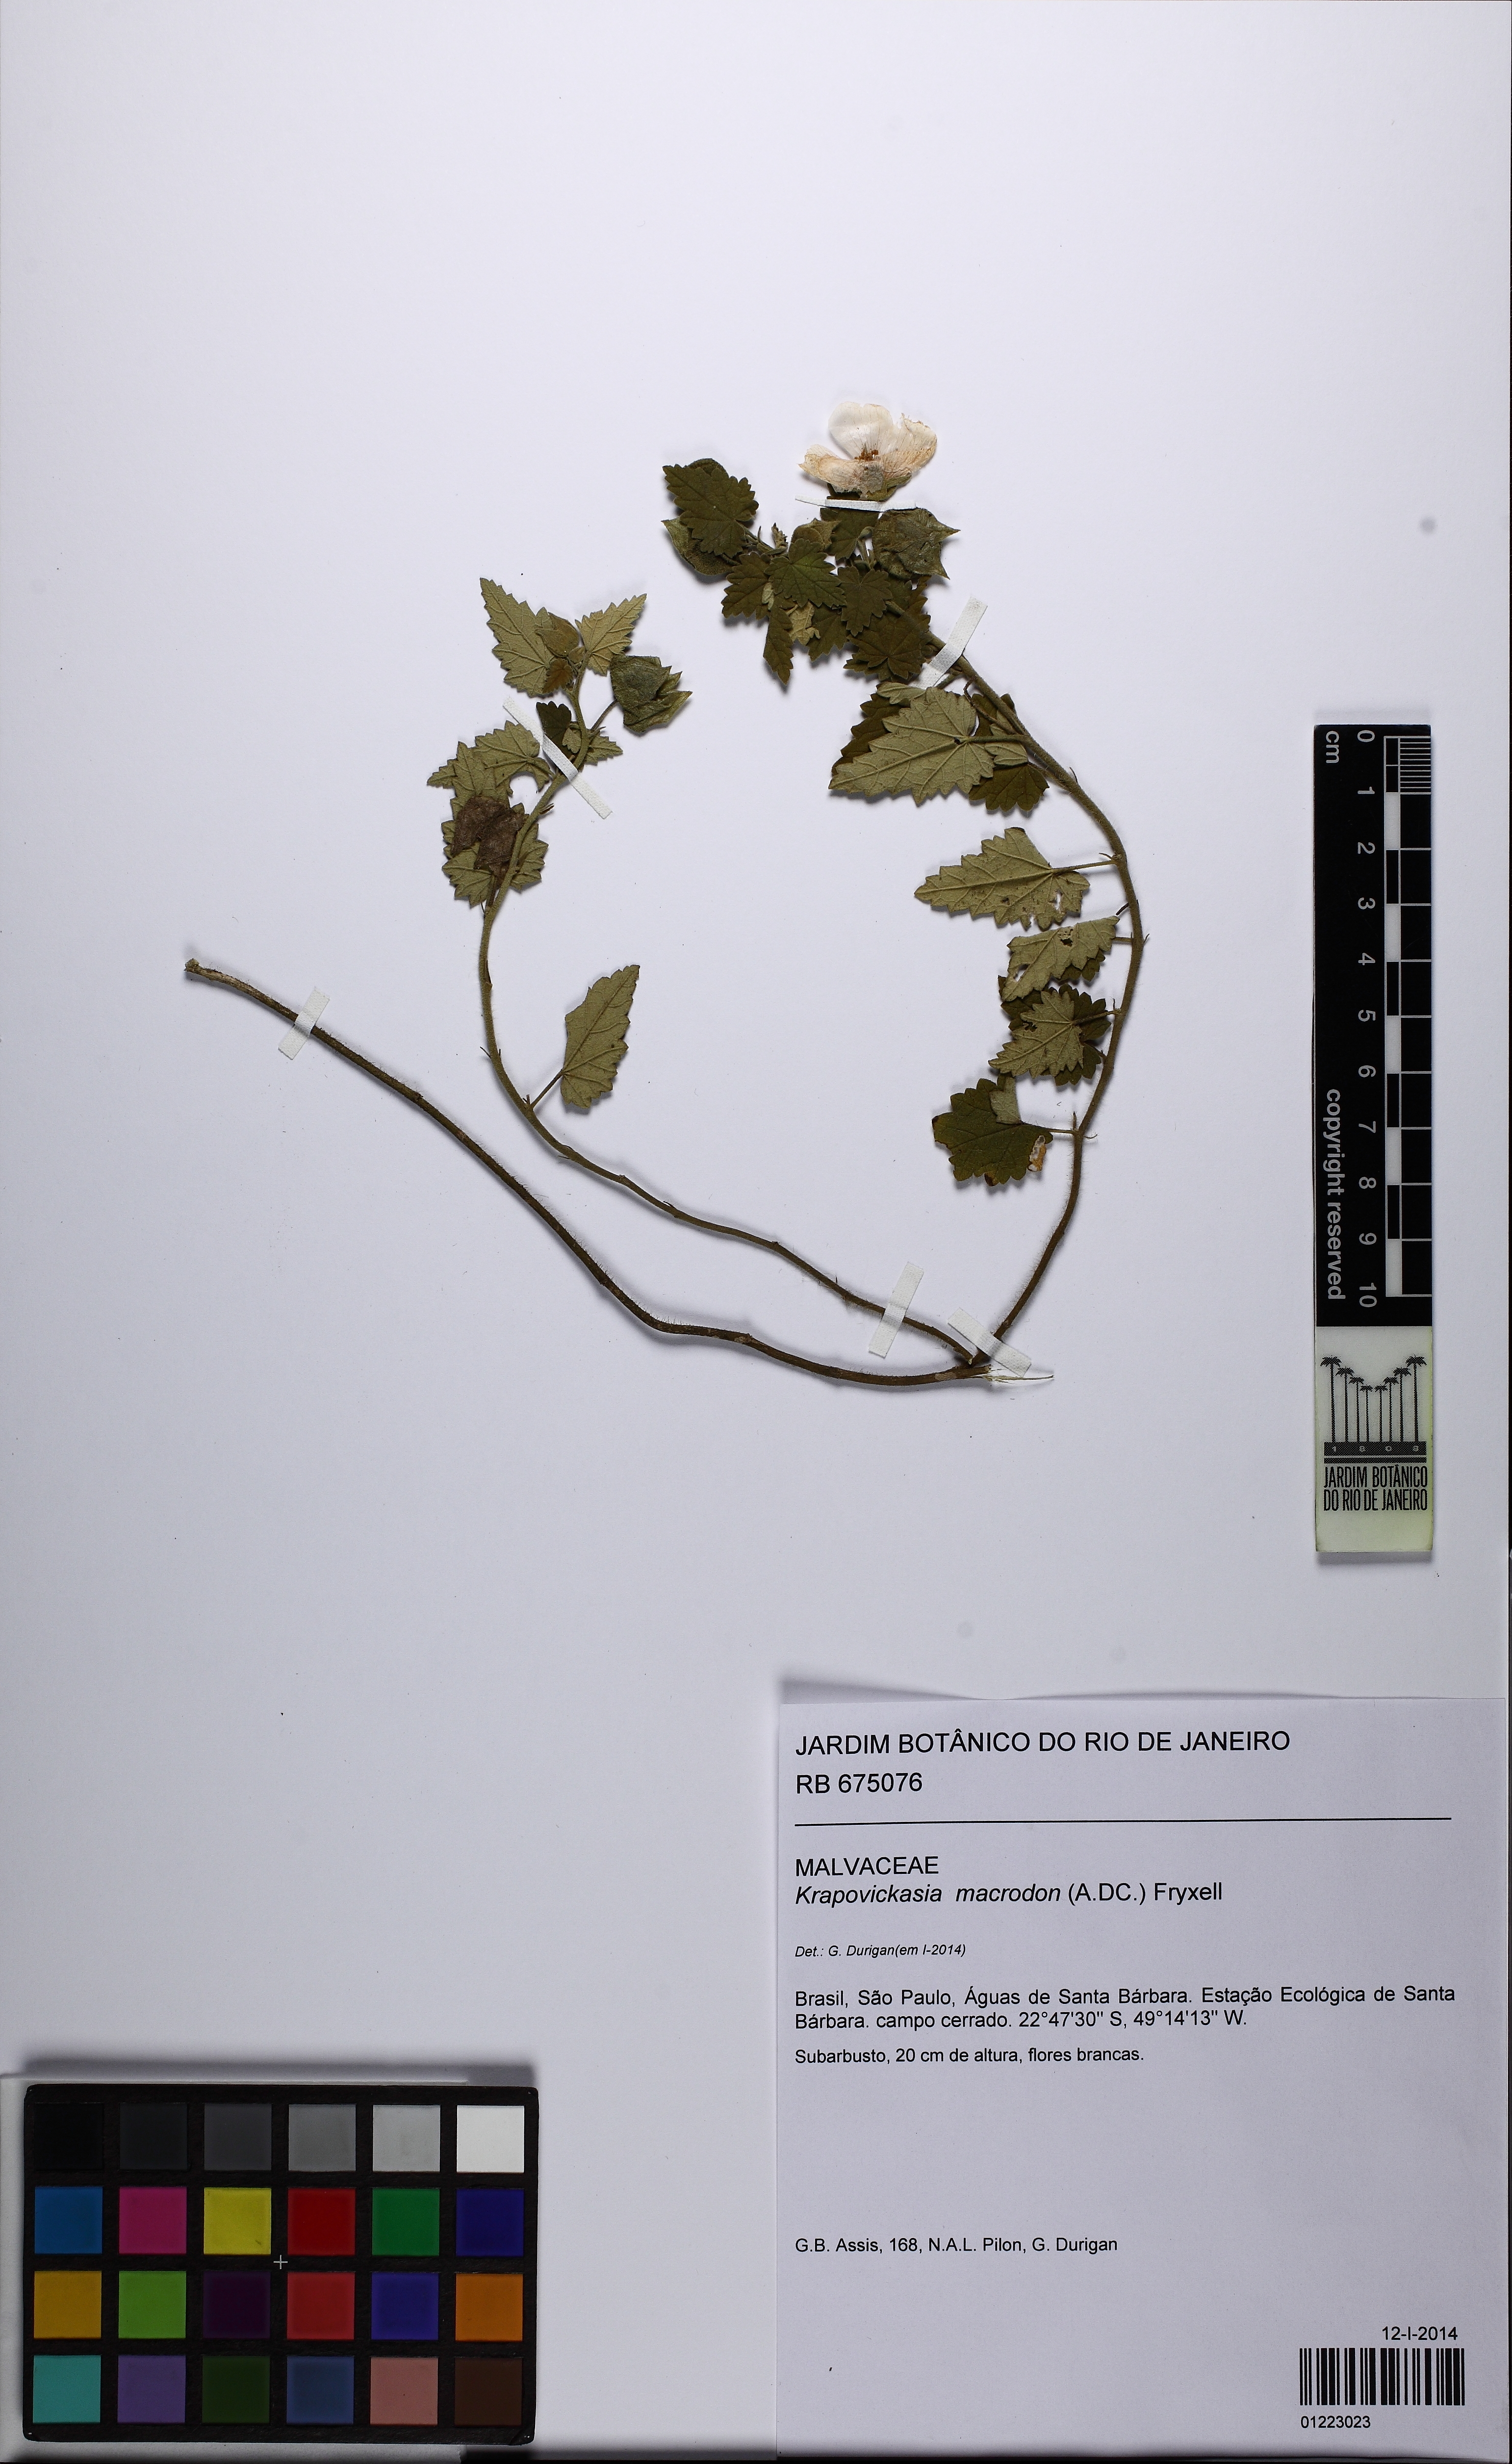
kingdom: Plantae
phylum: Tracheophyta
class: Magnoliopsida
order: Malvales
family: Malvaceae
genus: Krapovickasia
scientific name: Krapovickasia macrodon
